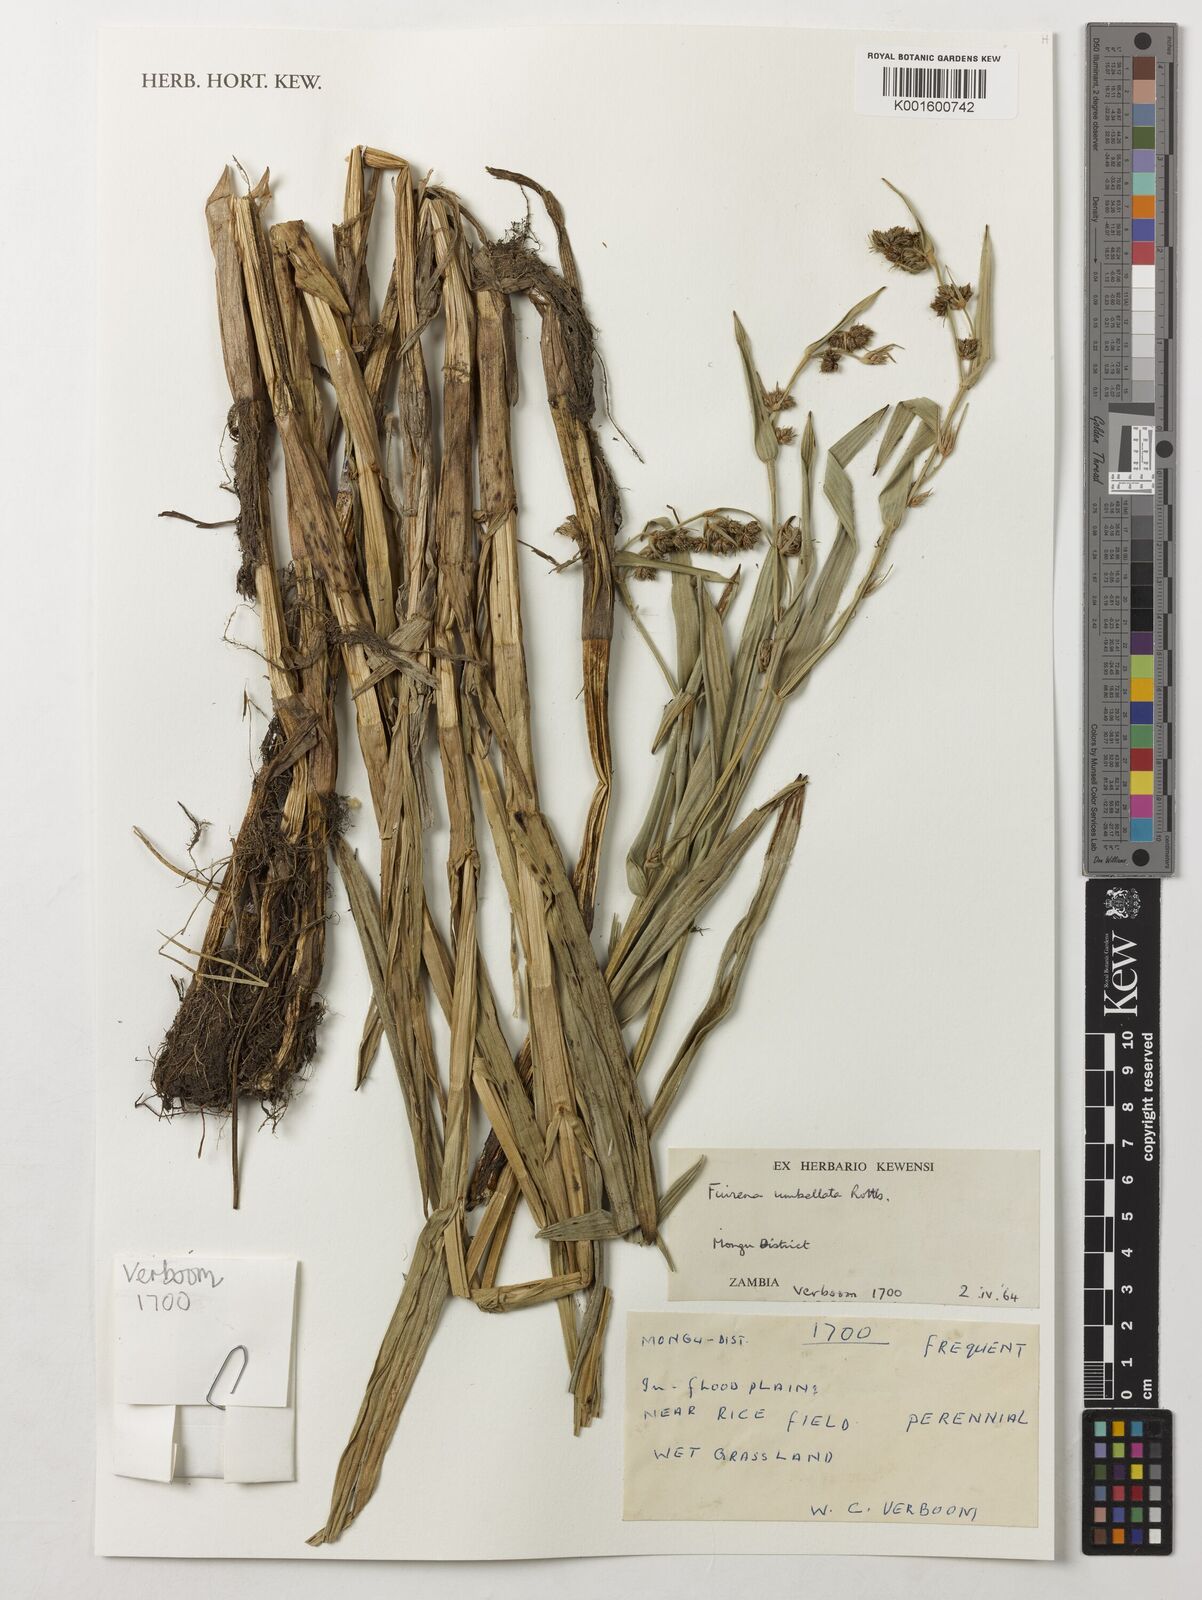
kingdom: Plantae
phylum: Tracheophyta
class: Liliopsida
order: Poales
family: Cyperaceae
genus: Fuirena
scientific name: Fuirena umbellata
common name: Yefen
